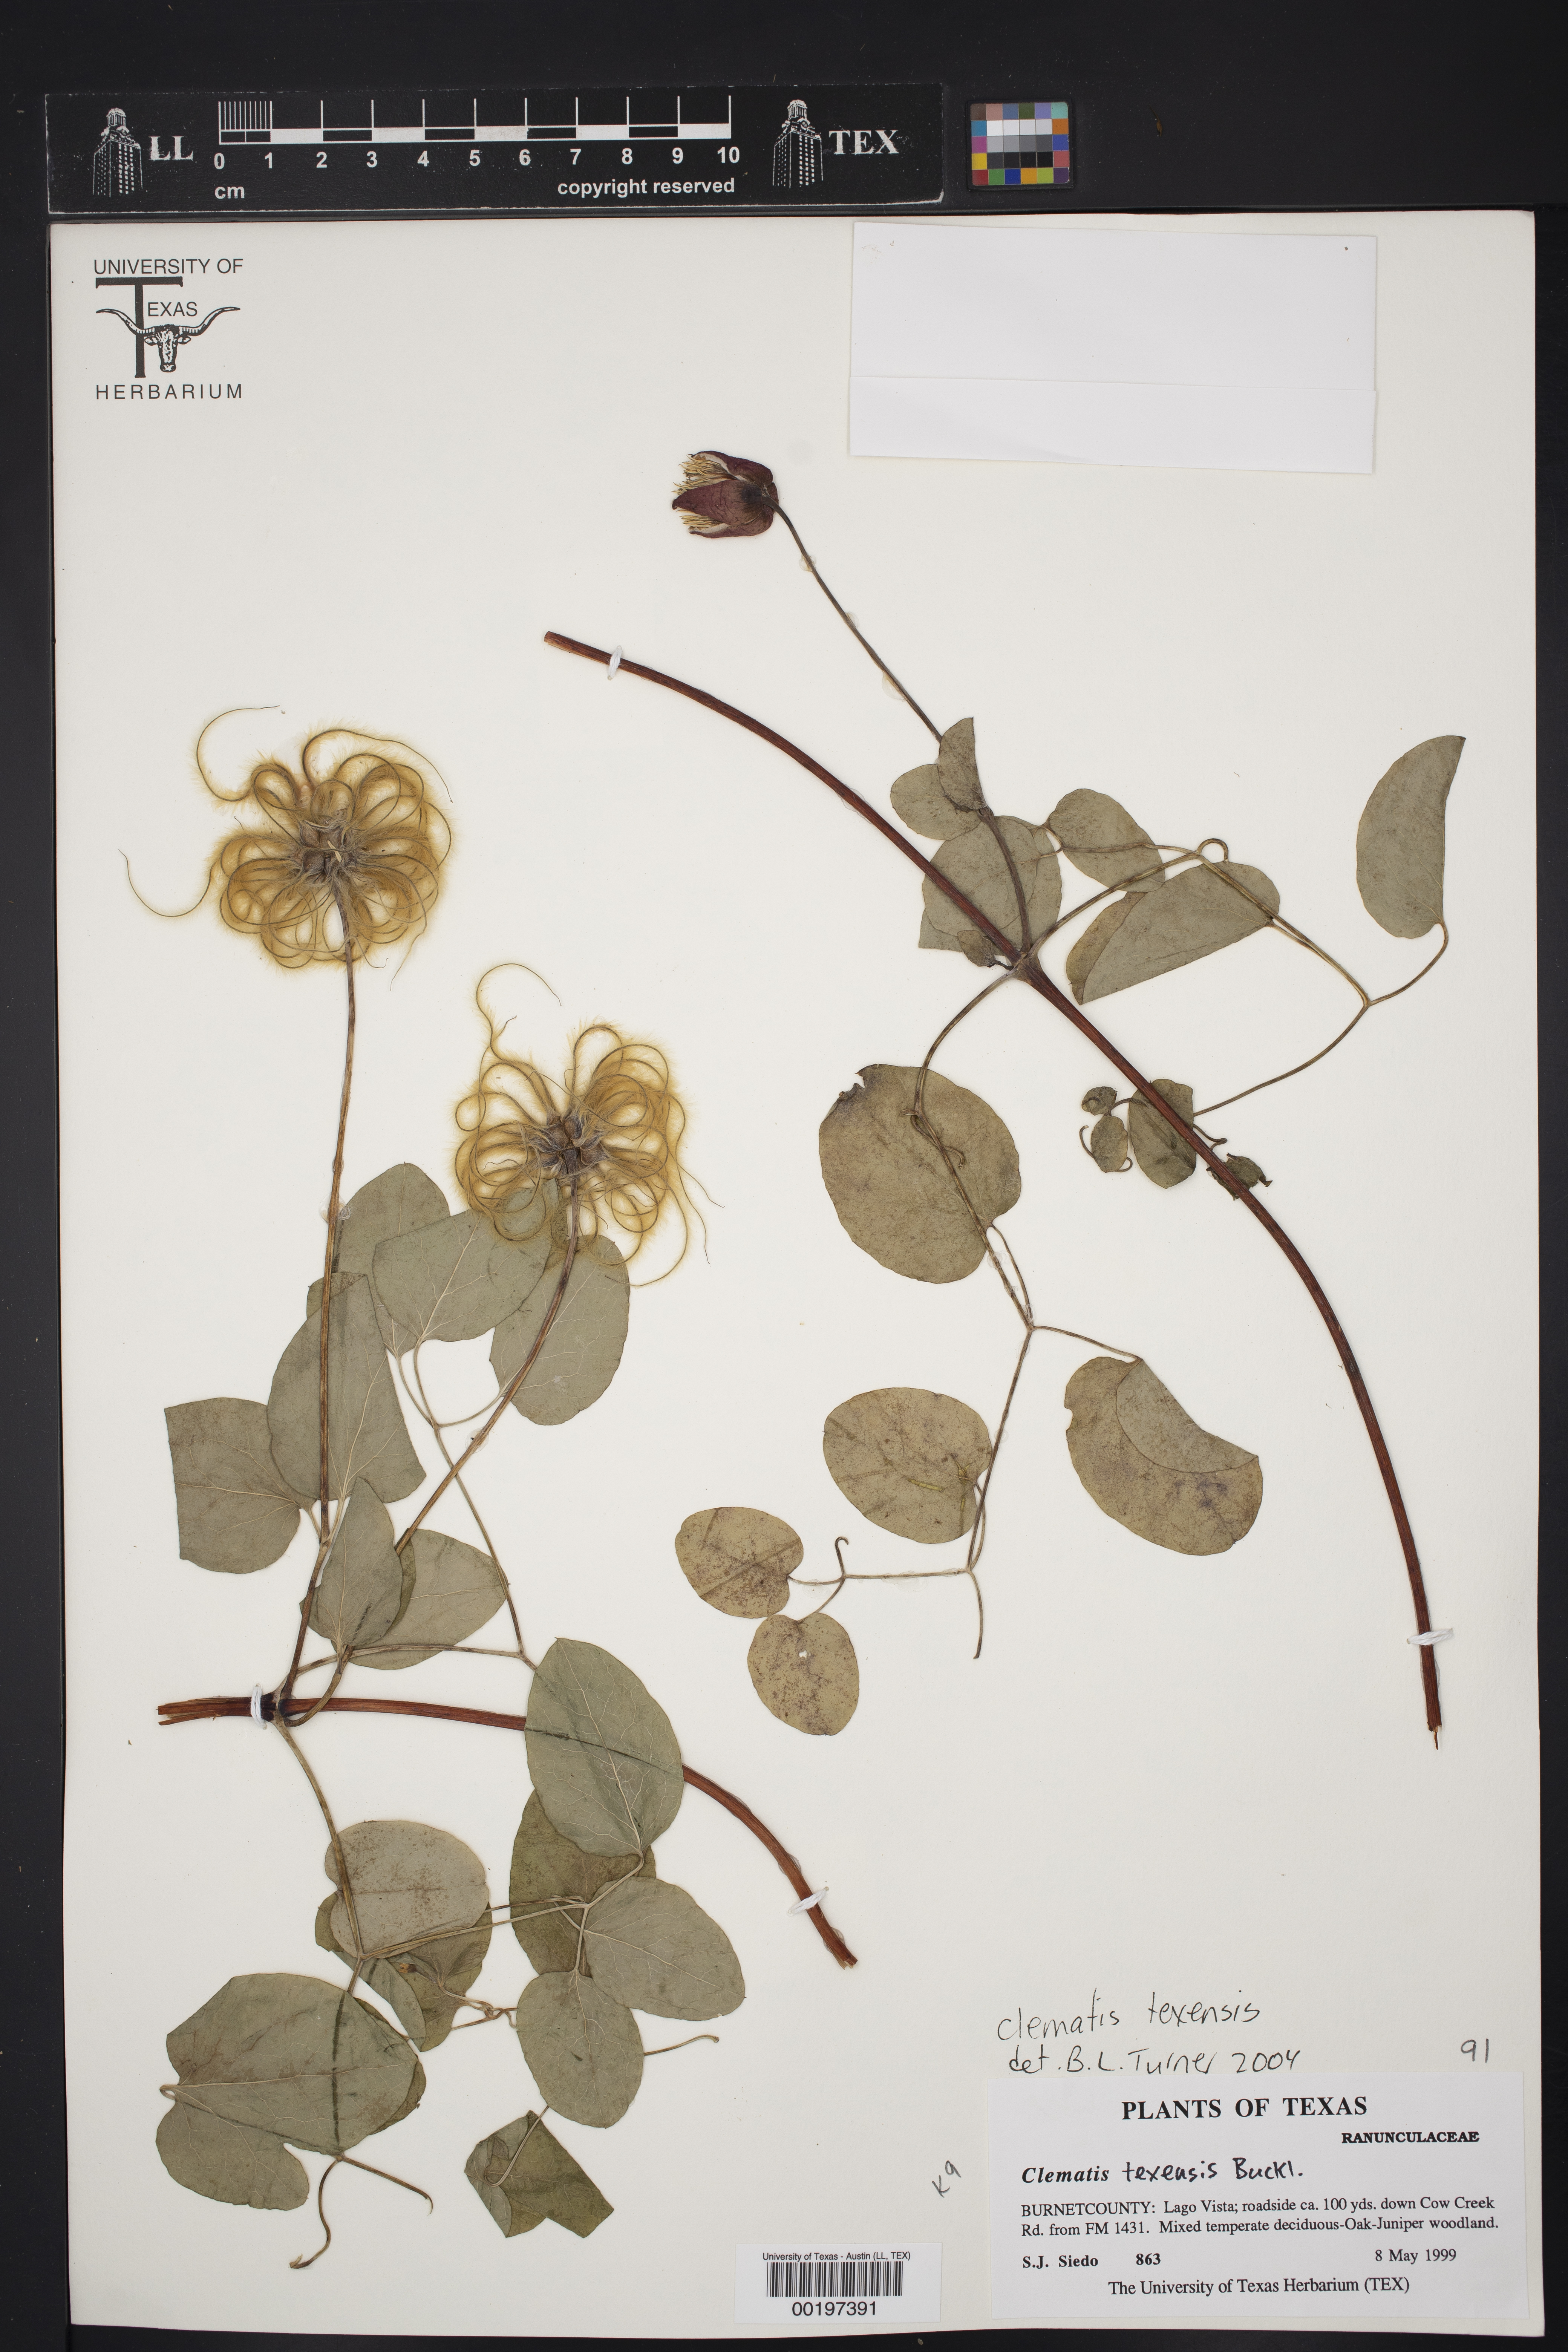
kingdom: Plantae
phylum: Tracheophyta
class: Magnoliopsida
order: Ranunculales
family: Ranunculaceae
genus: Clematis
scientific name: Clematis texensis
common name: Crimson clematis
